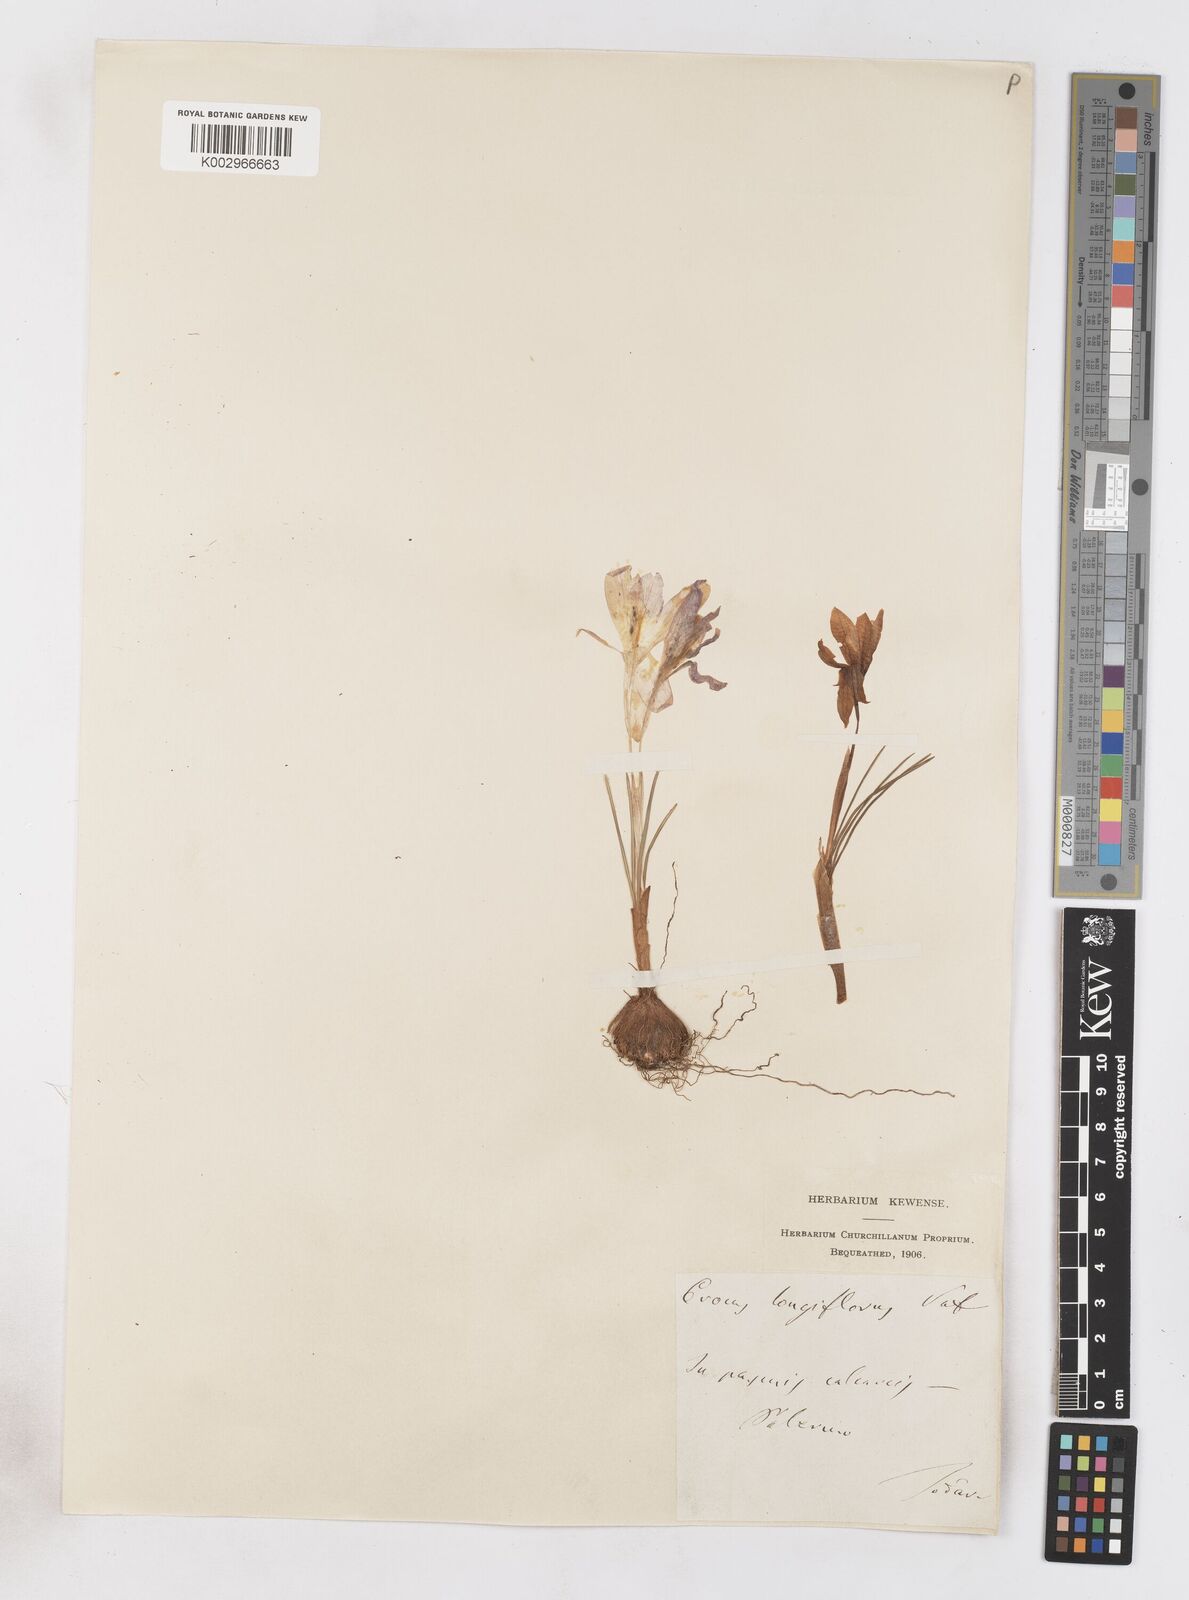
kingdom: Plantae
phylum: Tracheophyta
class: Liliopsida
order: Asparagales
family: Iridaceae
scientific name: Iridaceae
